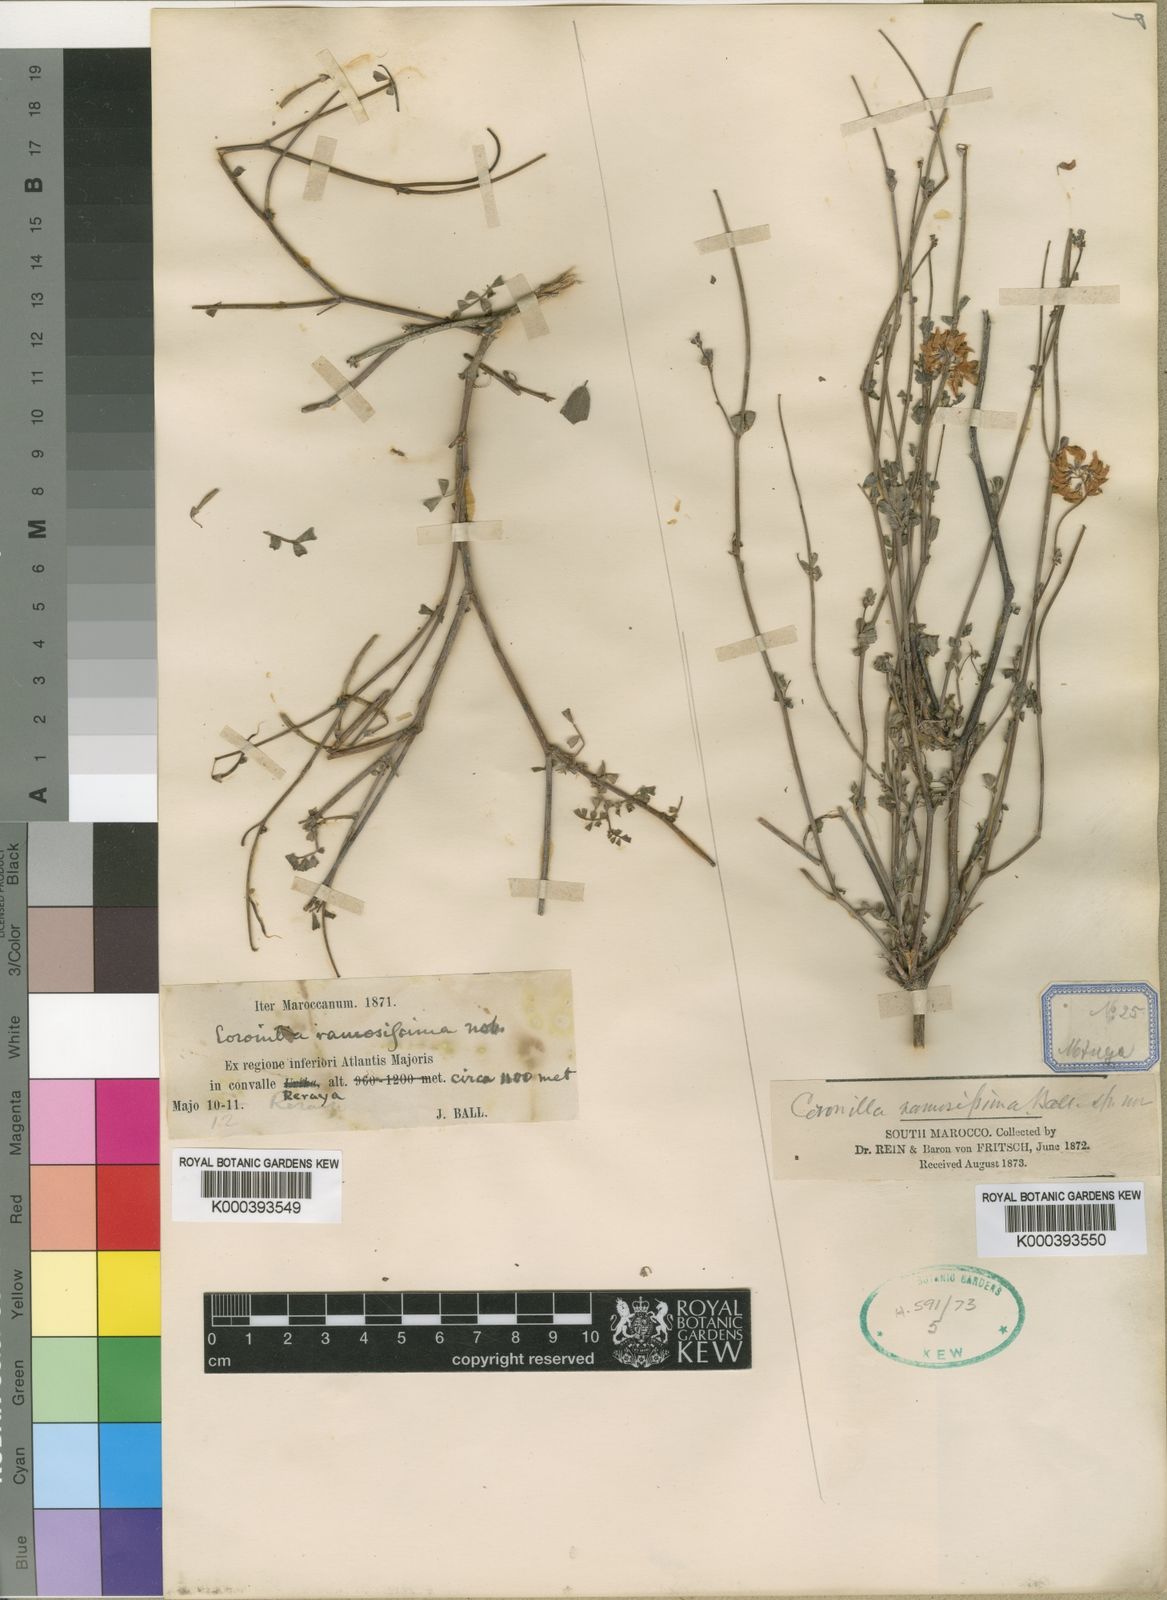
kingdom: Plantae
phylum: Tracheophyta
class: Magnoliopsida
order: Fabales
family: Fabaceae
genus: Coronilla
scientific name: Coronilla ramosissima
